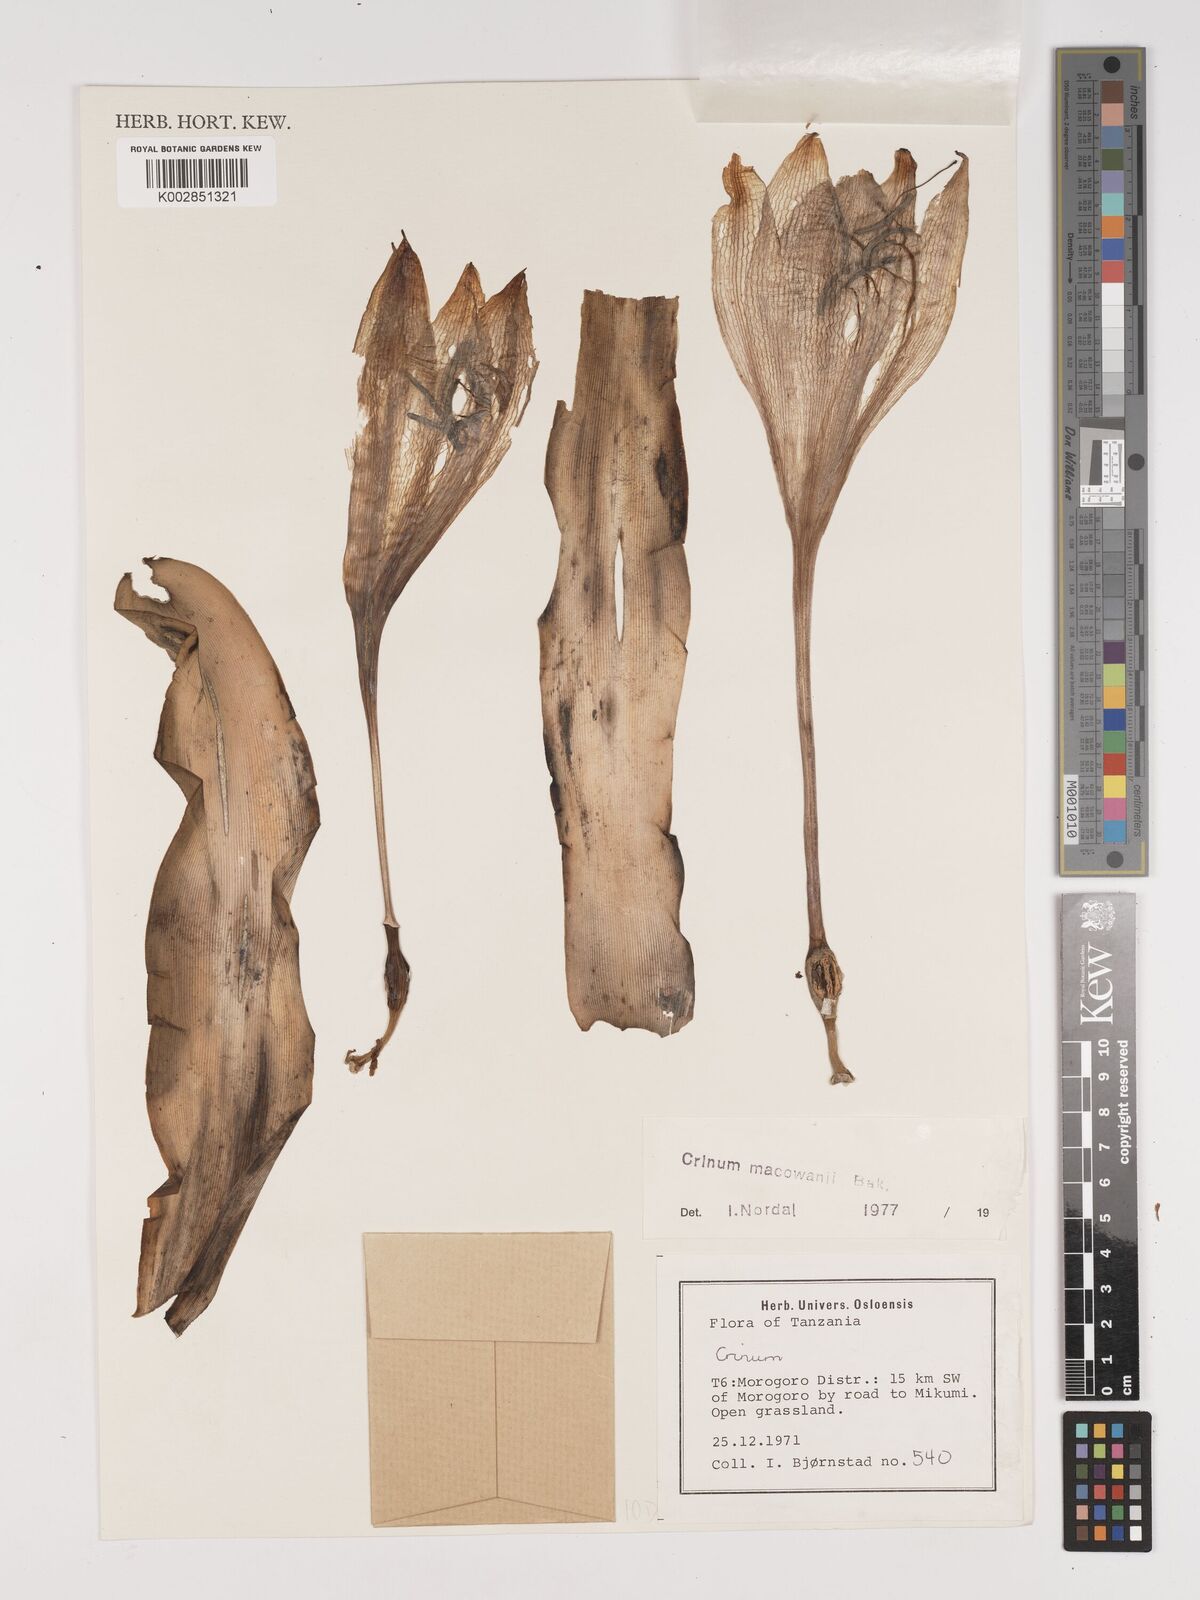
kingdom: Plantae
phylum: Tracheophyta
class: Liliopsida
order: Asparagales
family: Amaryllidaceae
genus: Crinum
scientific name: Crinum macowanii
